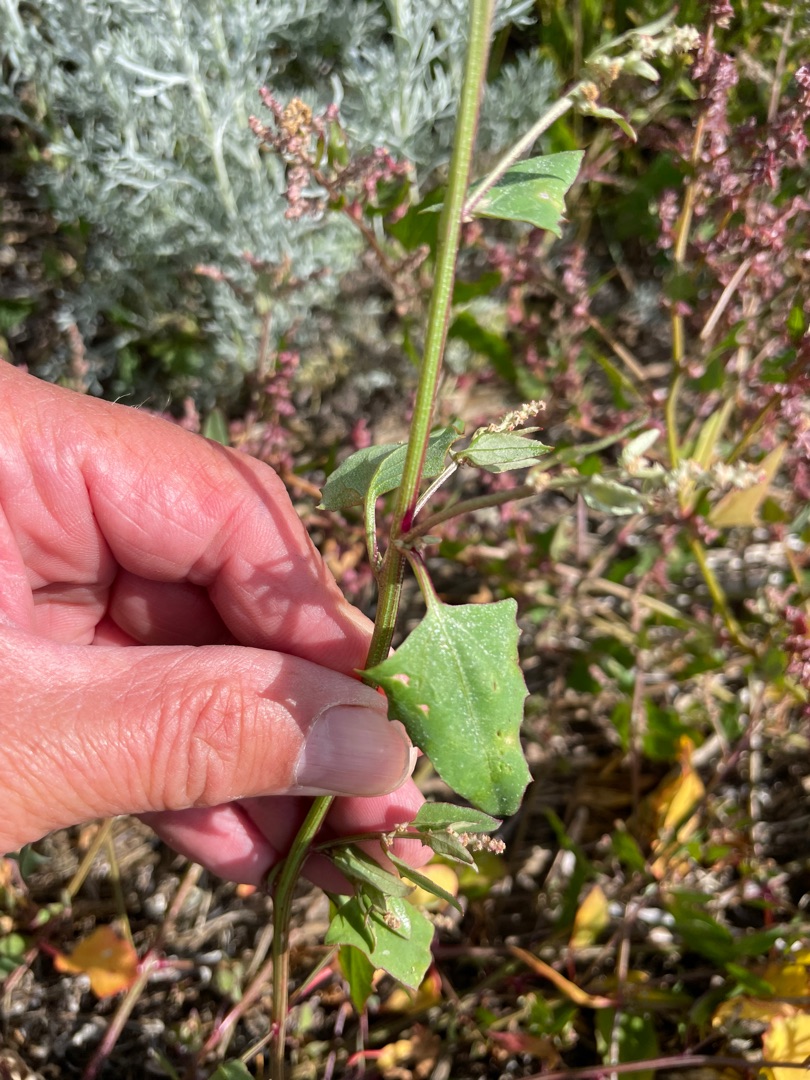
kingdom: Plantae
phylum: Tracheophyta
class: Magnoliopsida
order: Caryophyllales
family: Amaranthaceae
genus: Atriplex
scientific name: Atriplex prostrata
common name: Spyd-mælde
